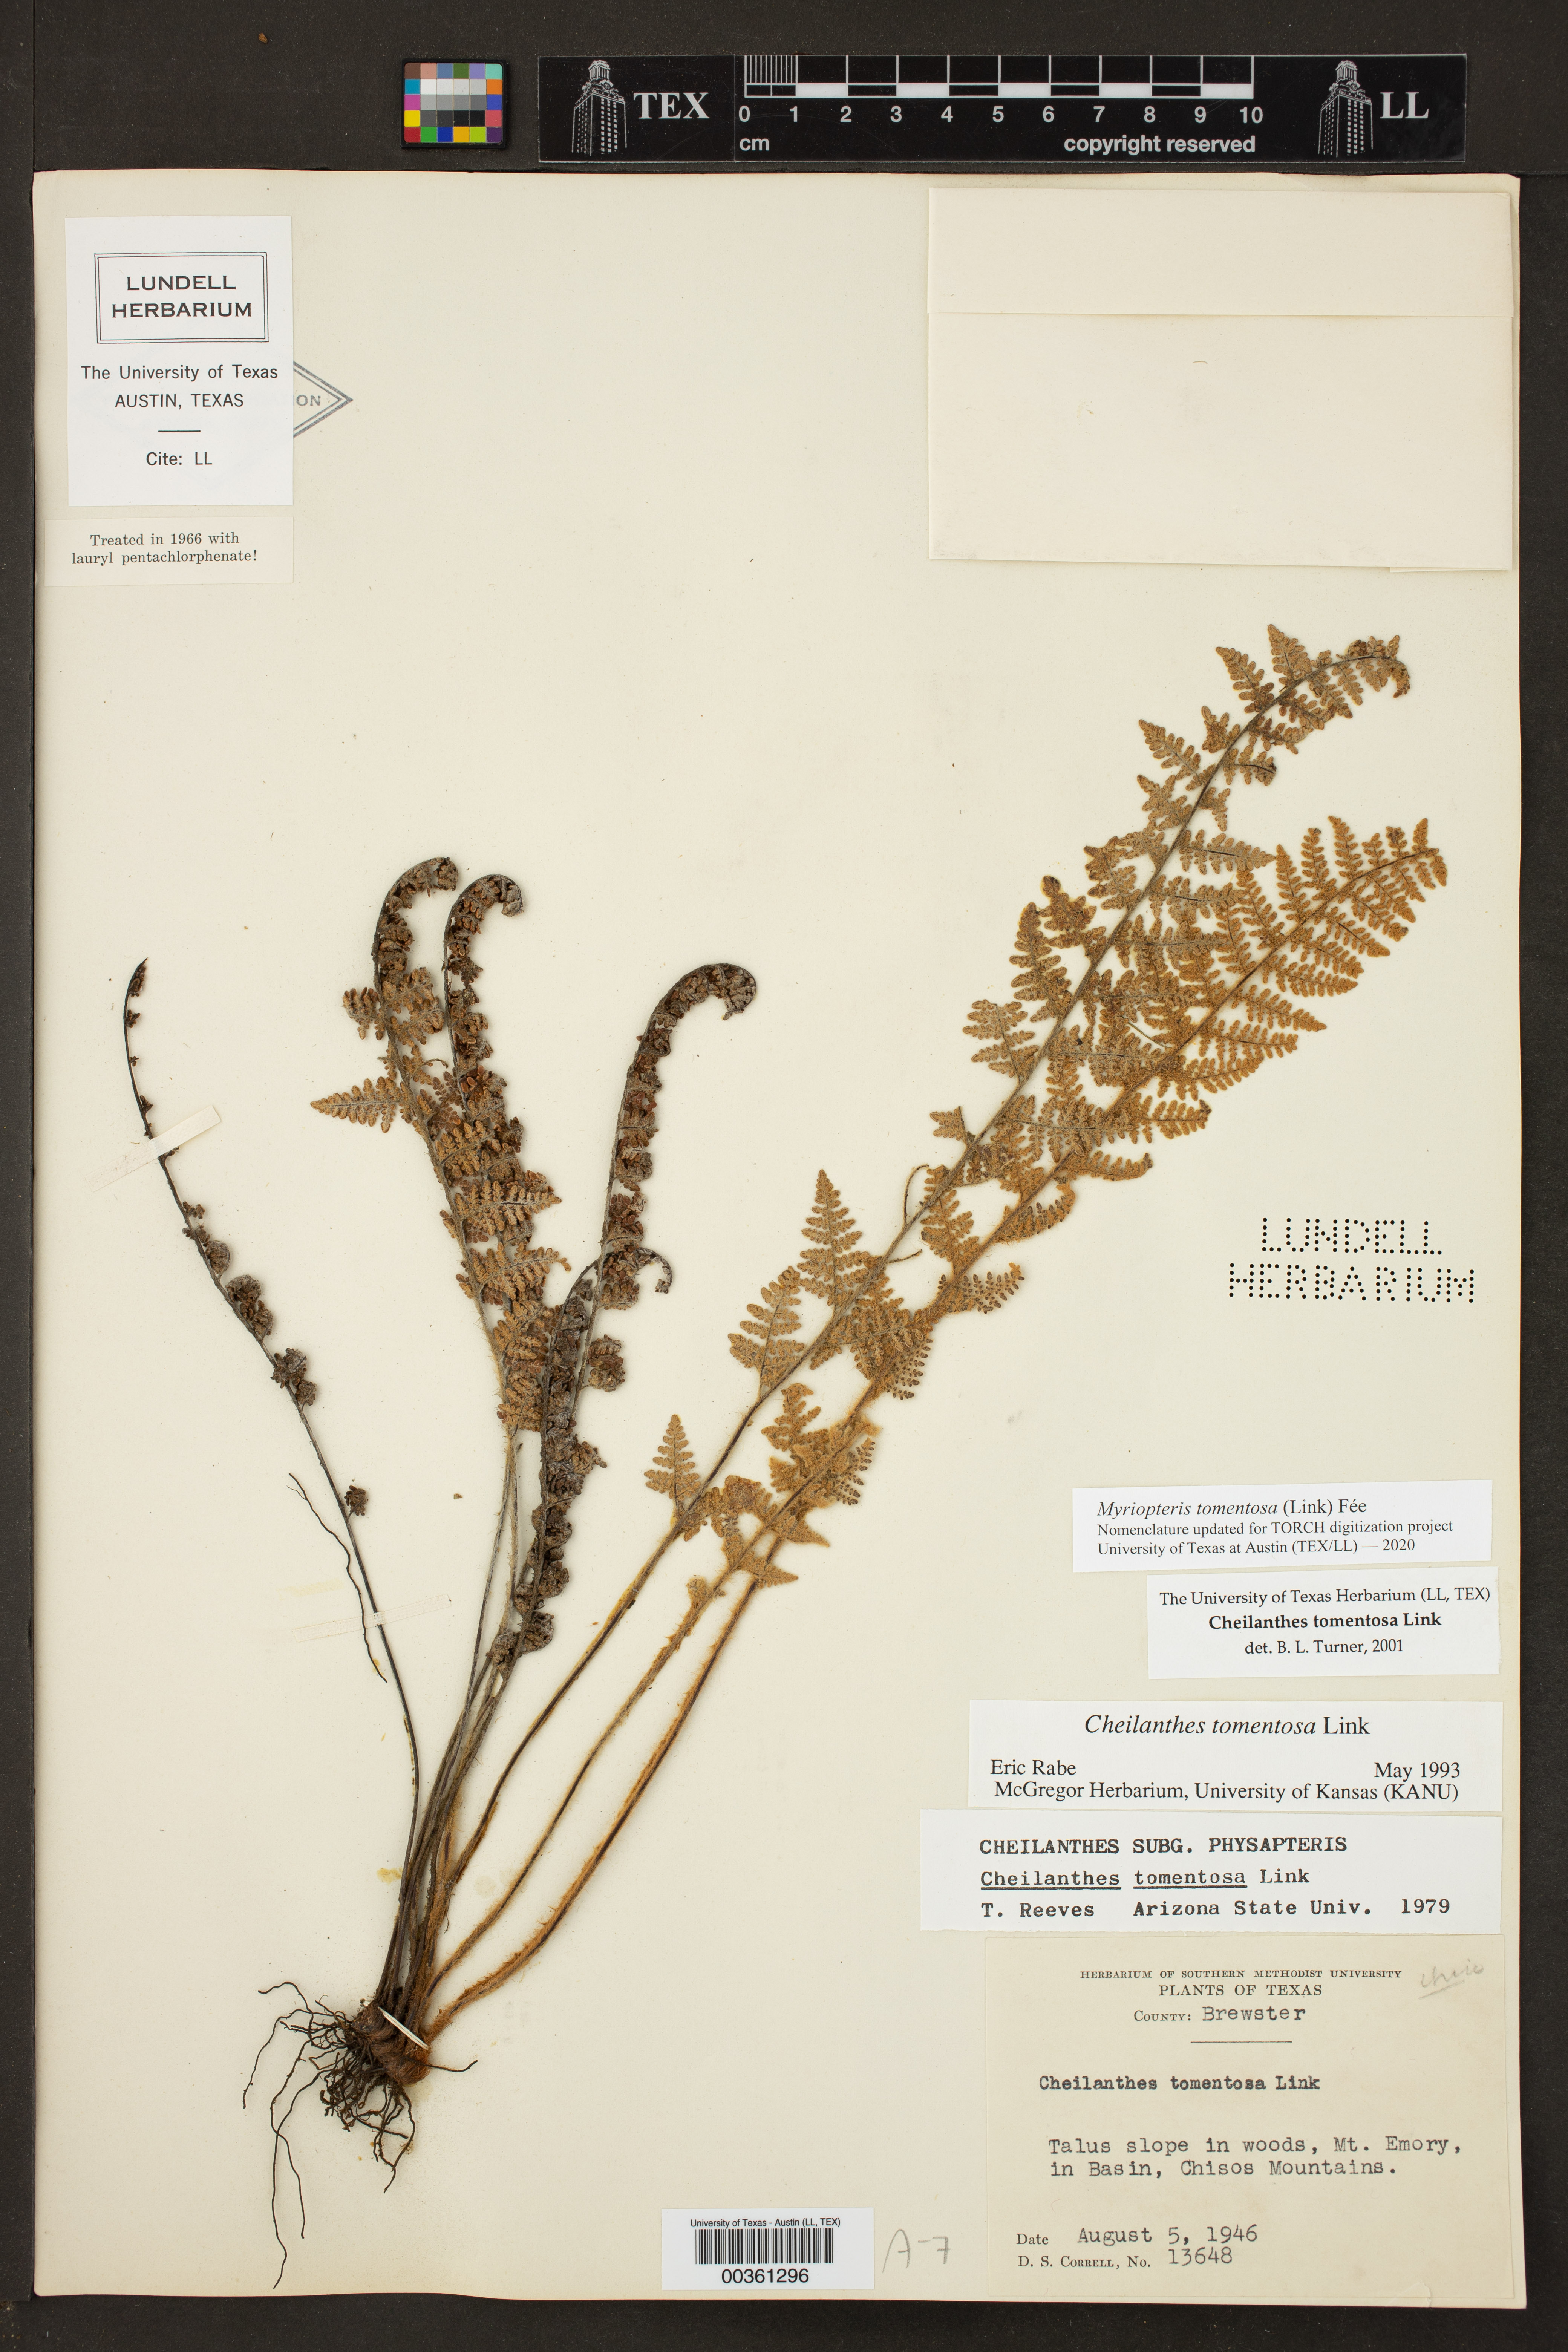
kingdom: Plantae
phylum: Tracheophyta
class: Polypodiopsida
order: Polypodiales
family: Pteridaceae
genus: Myriopteris
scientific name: Myriopteris tomentosa
